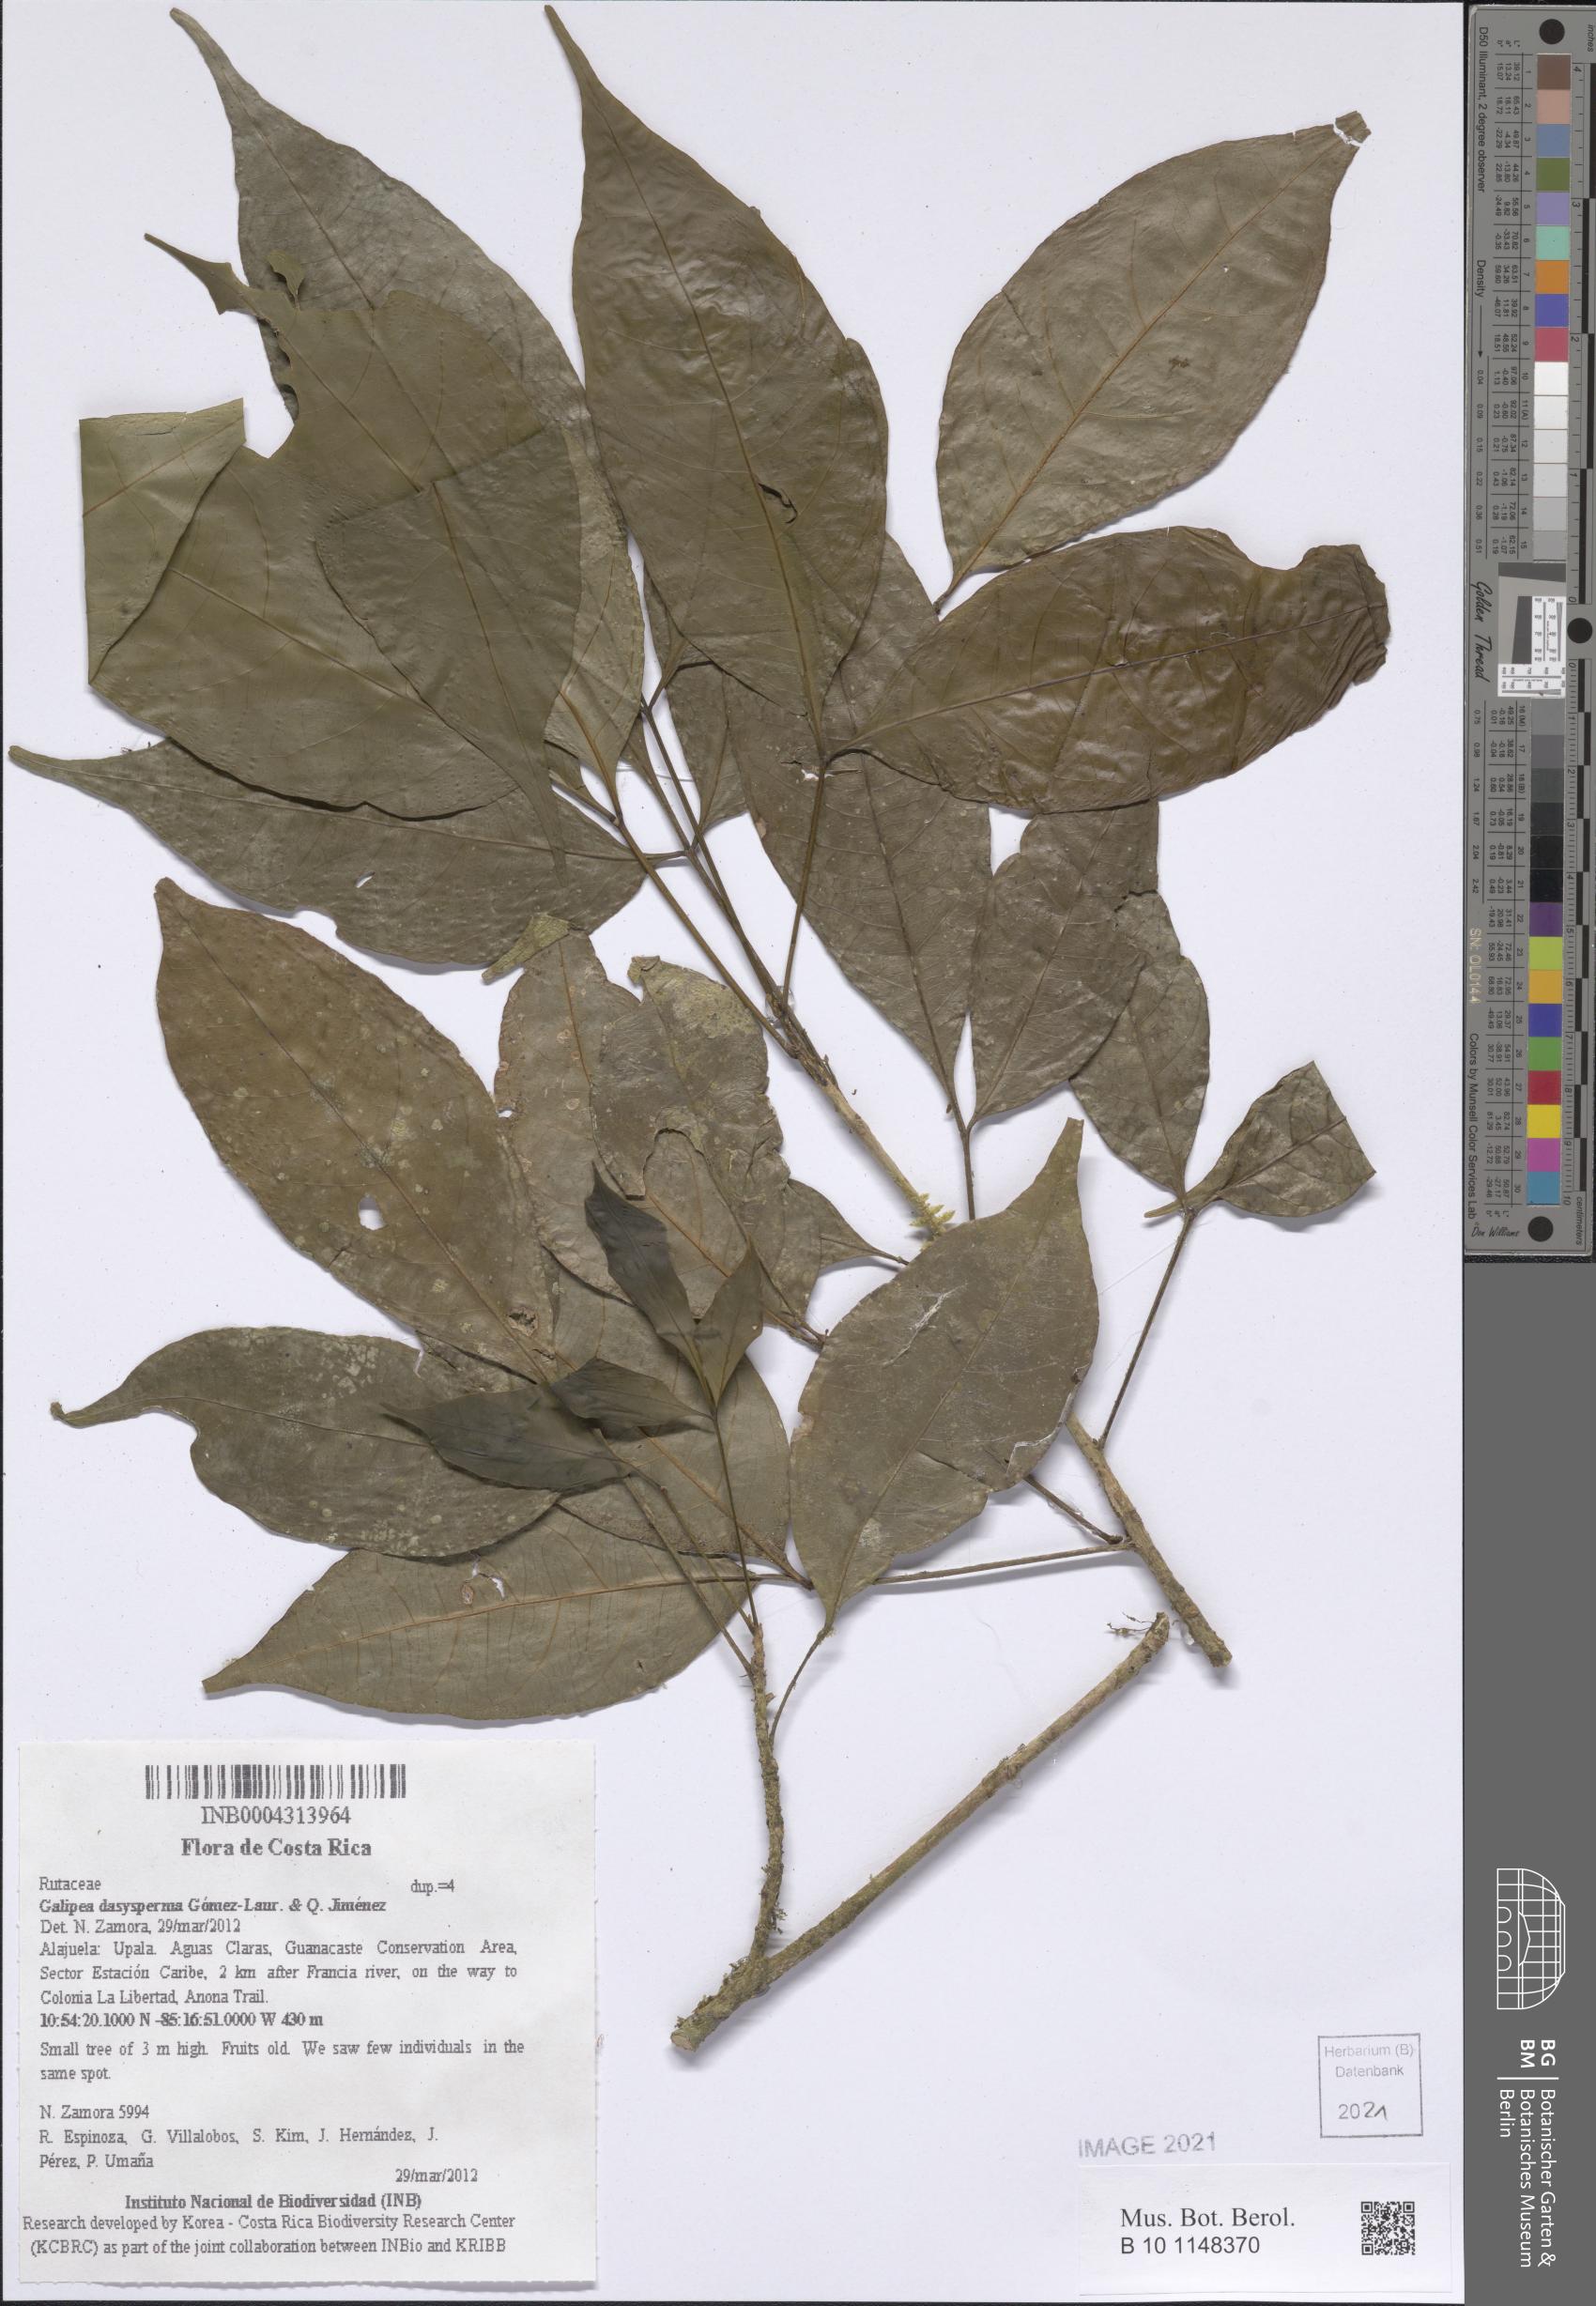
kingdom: Plantae
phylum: Tracheophyta
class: Magnoliopsida
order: Sapindales
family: Rutaceae
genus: Galipea
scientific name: Galipea dasysperma
